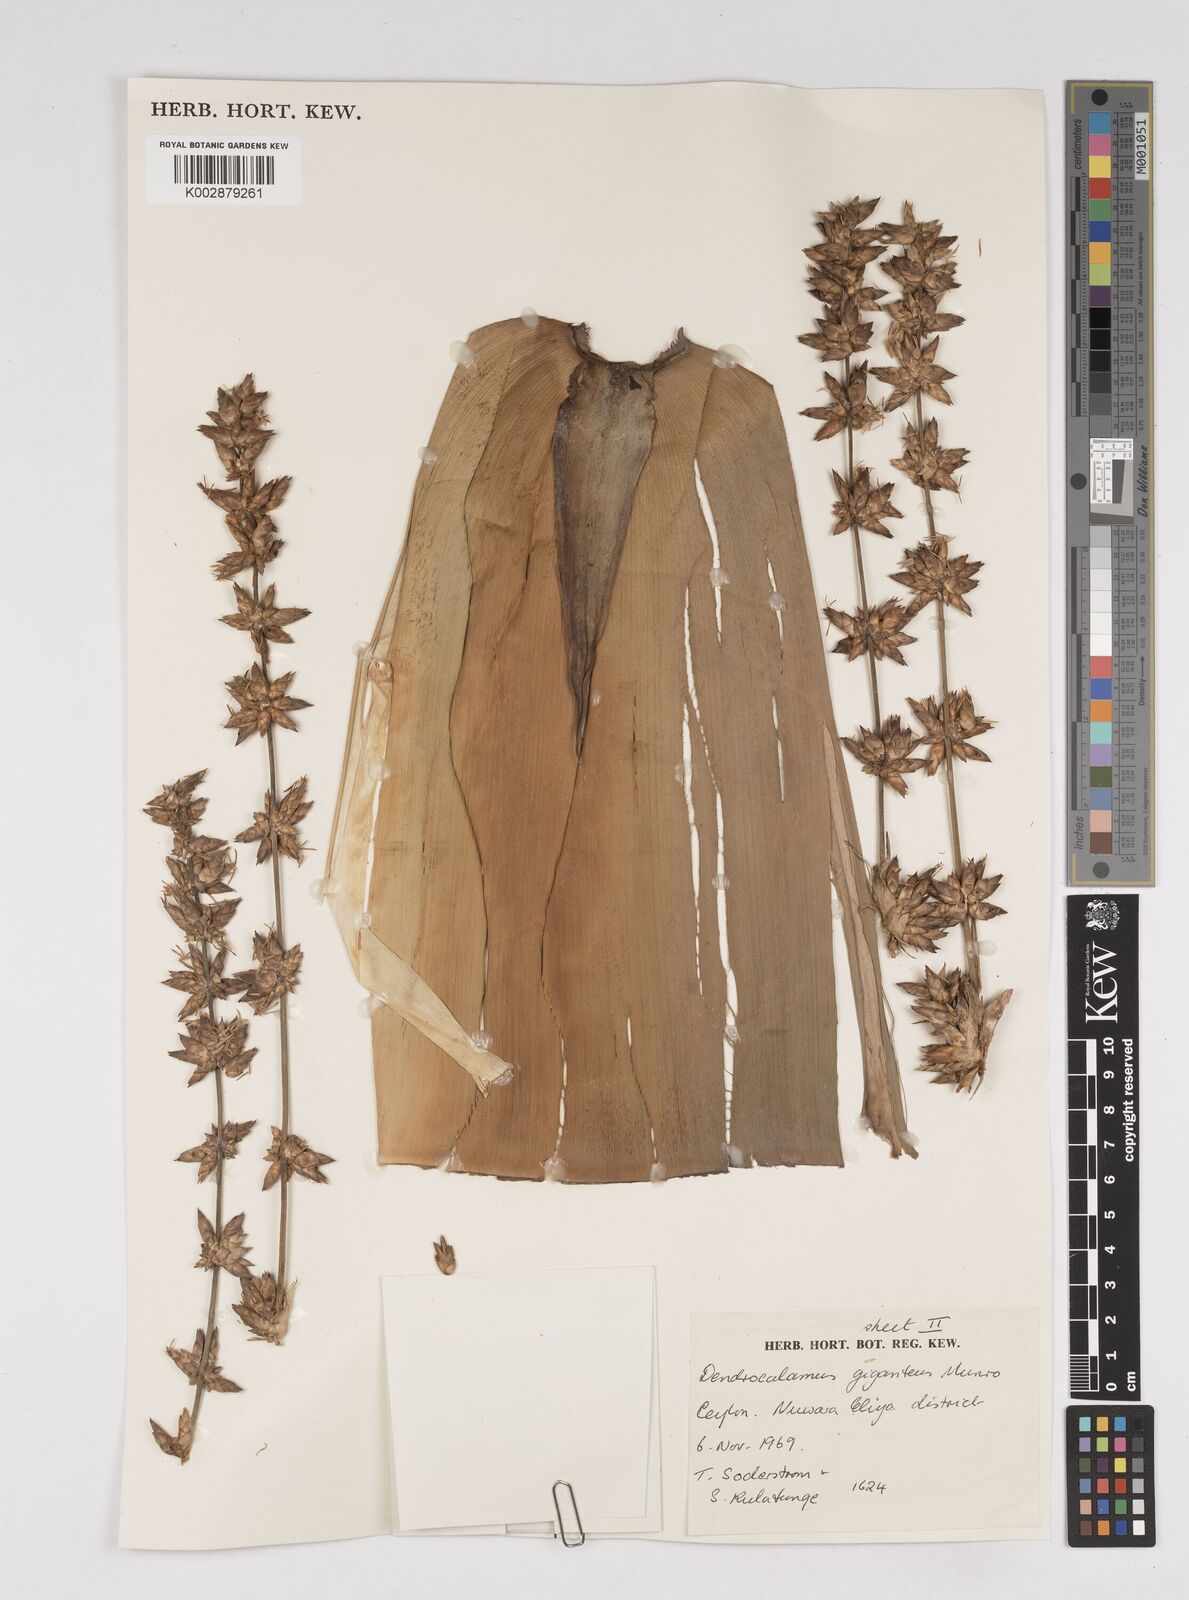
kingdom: Plantae
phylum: Tracheophyta
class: Liliopsida
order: Poales
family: Poaceae
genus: Dendrocalamus
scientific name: Dendrocalamus giganteus
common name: Giant bamboo
